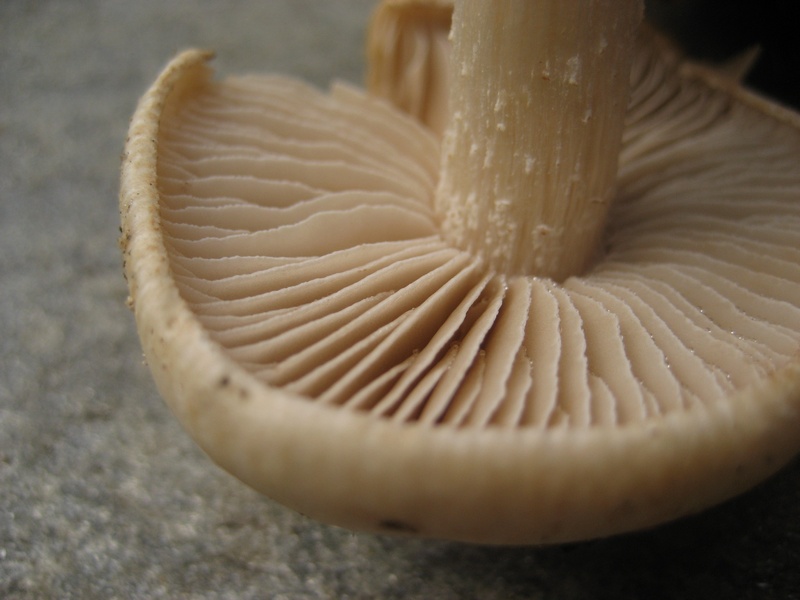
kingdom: Fungi
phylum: Basidiomycota
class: Agaricomycetes
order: Agaricales
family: Hymenogastraceae
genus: Hebeloma
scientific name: Hebeloma eburneum
